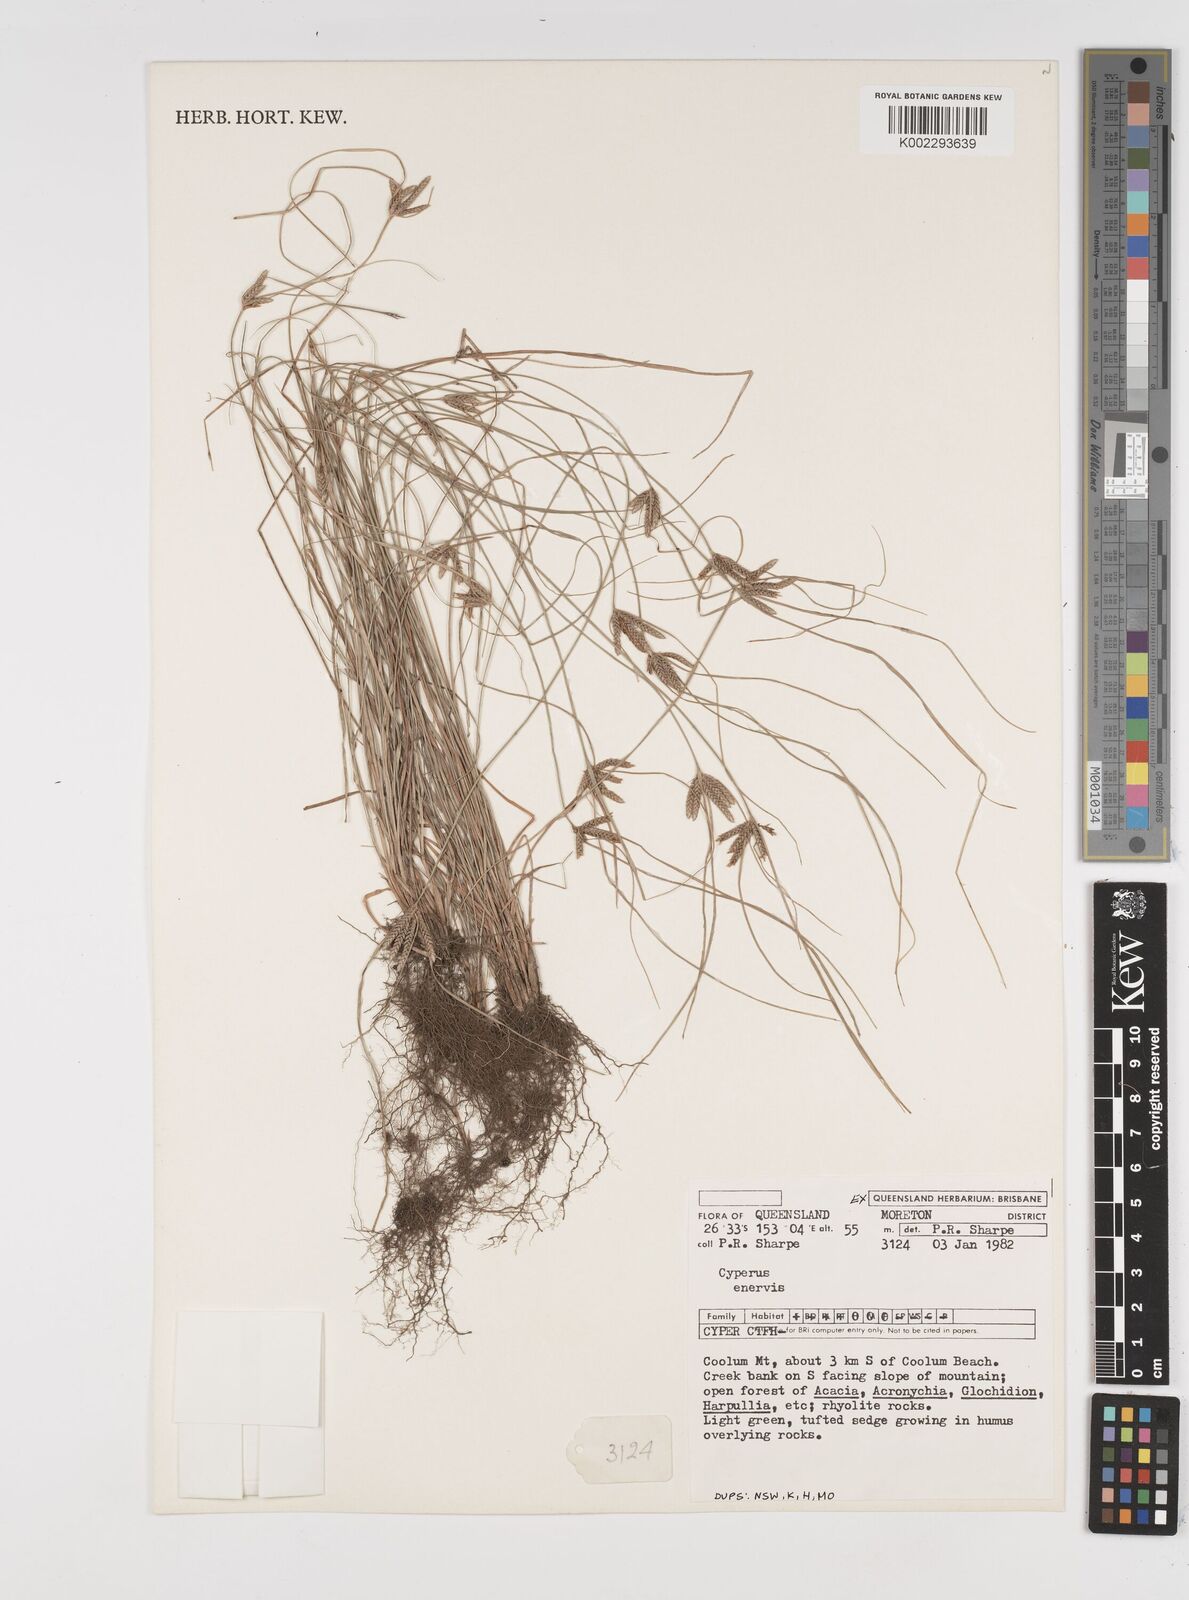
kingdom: Plantae
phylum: Tracheophyta
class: Liliopsida
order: Poales
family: Cyperaceae
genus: Cyperus
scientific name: Cyperus enervis
